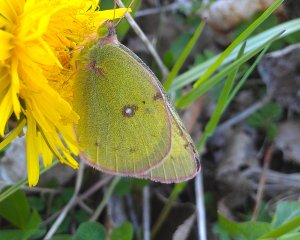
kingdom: Animalia
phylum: Arthropoda
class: Insecta
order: Lepidoptera
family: Pieridae
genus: Colias
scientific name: Colias philodice
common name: Clouded Sulphur
